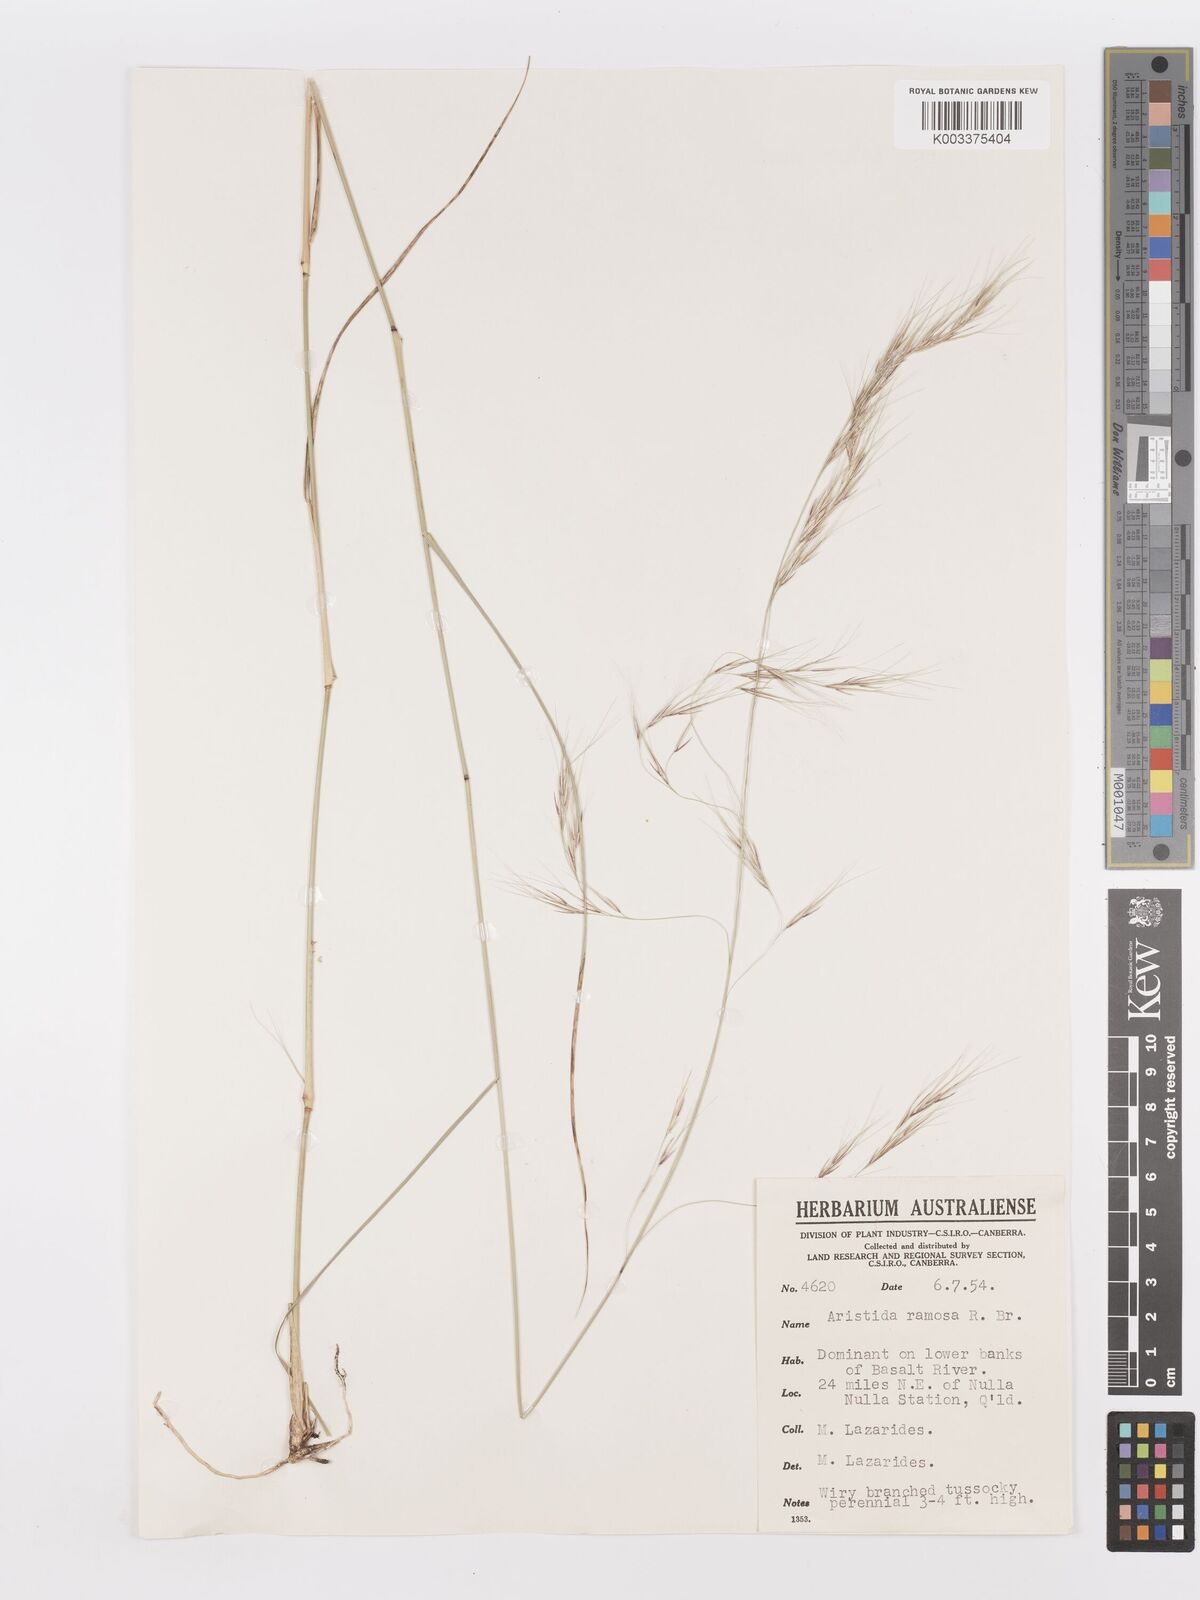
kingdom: Plantae
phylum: Tracheophyta
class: Liliopsida
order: Poales
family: Poaceae
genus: Aristida
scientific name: Aristida ramosa
